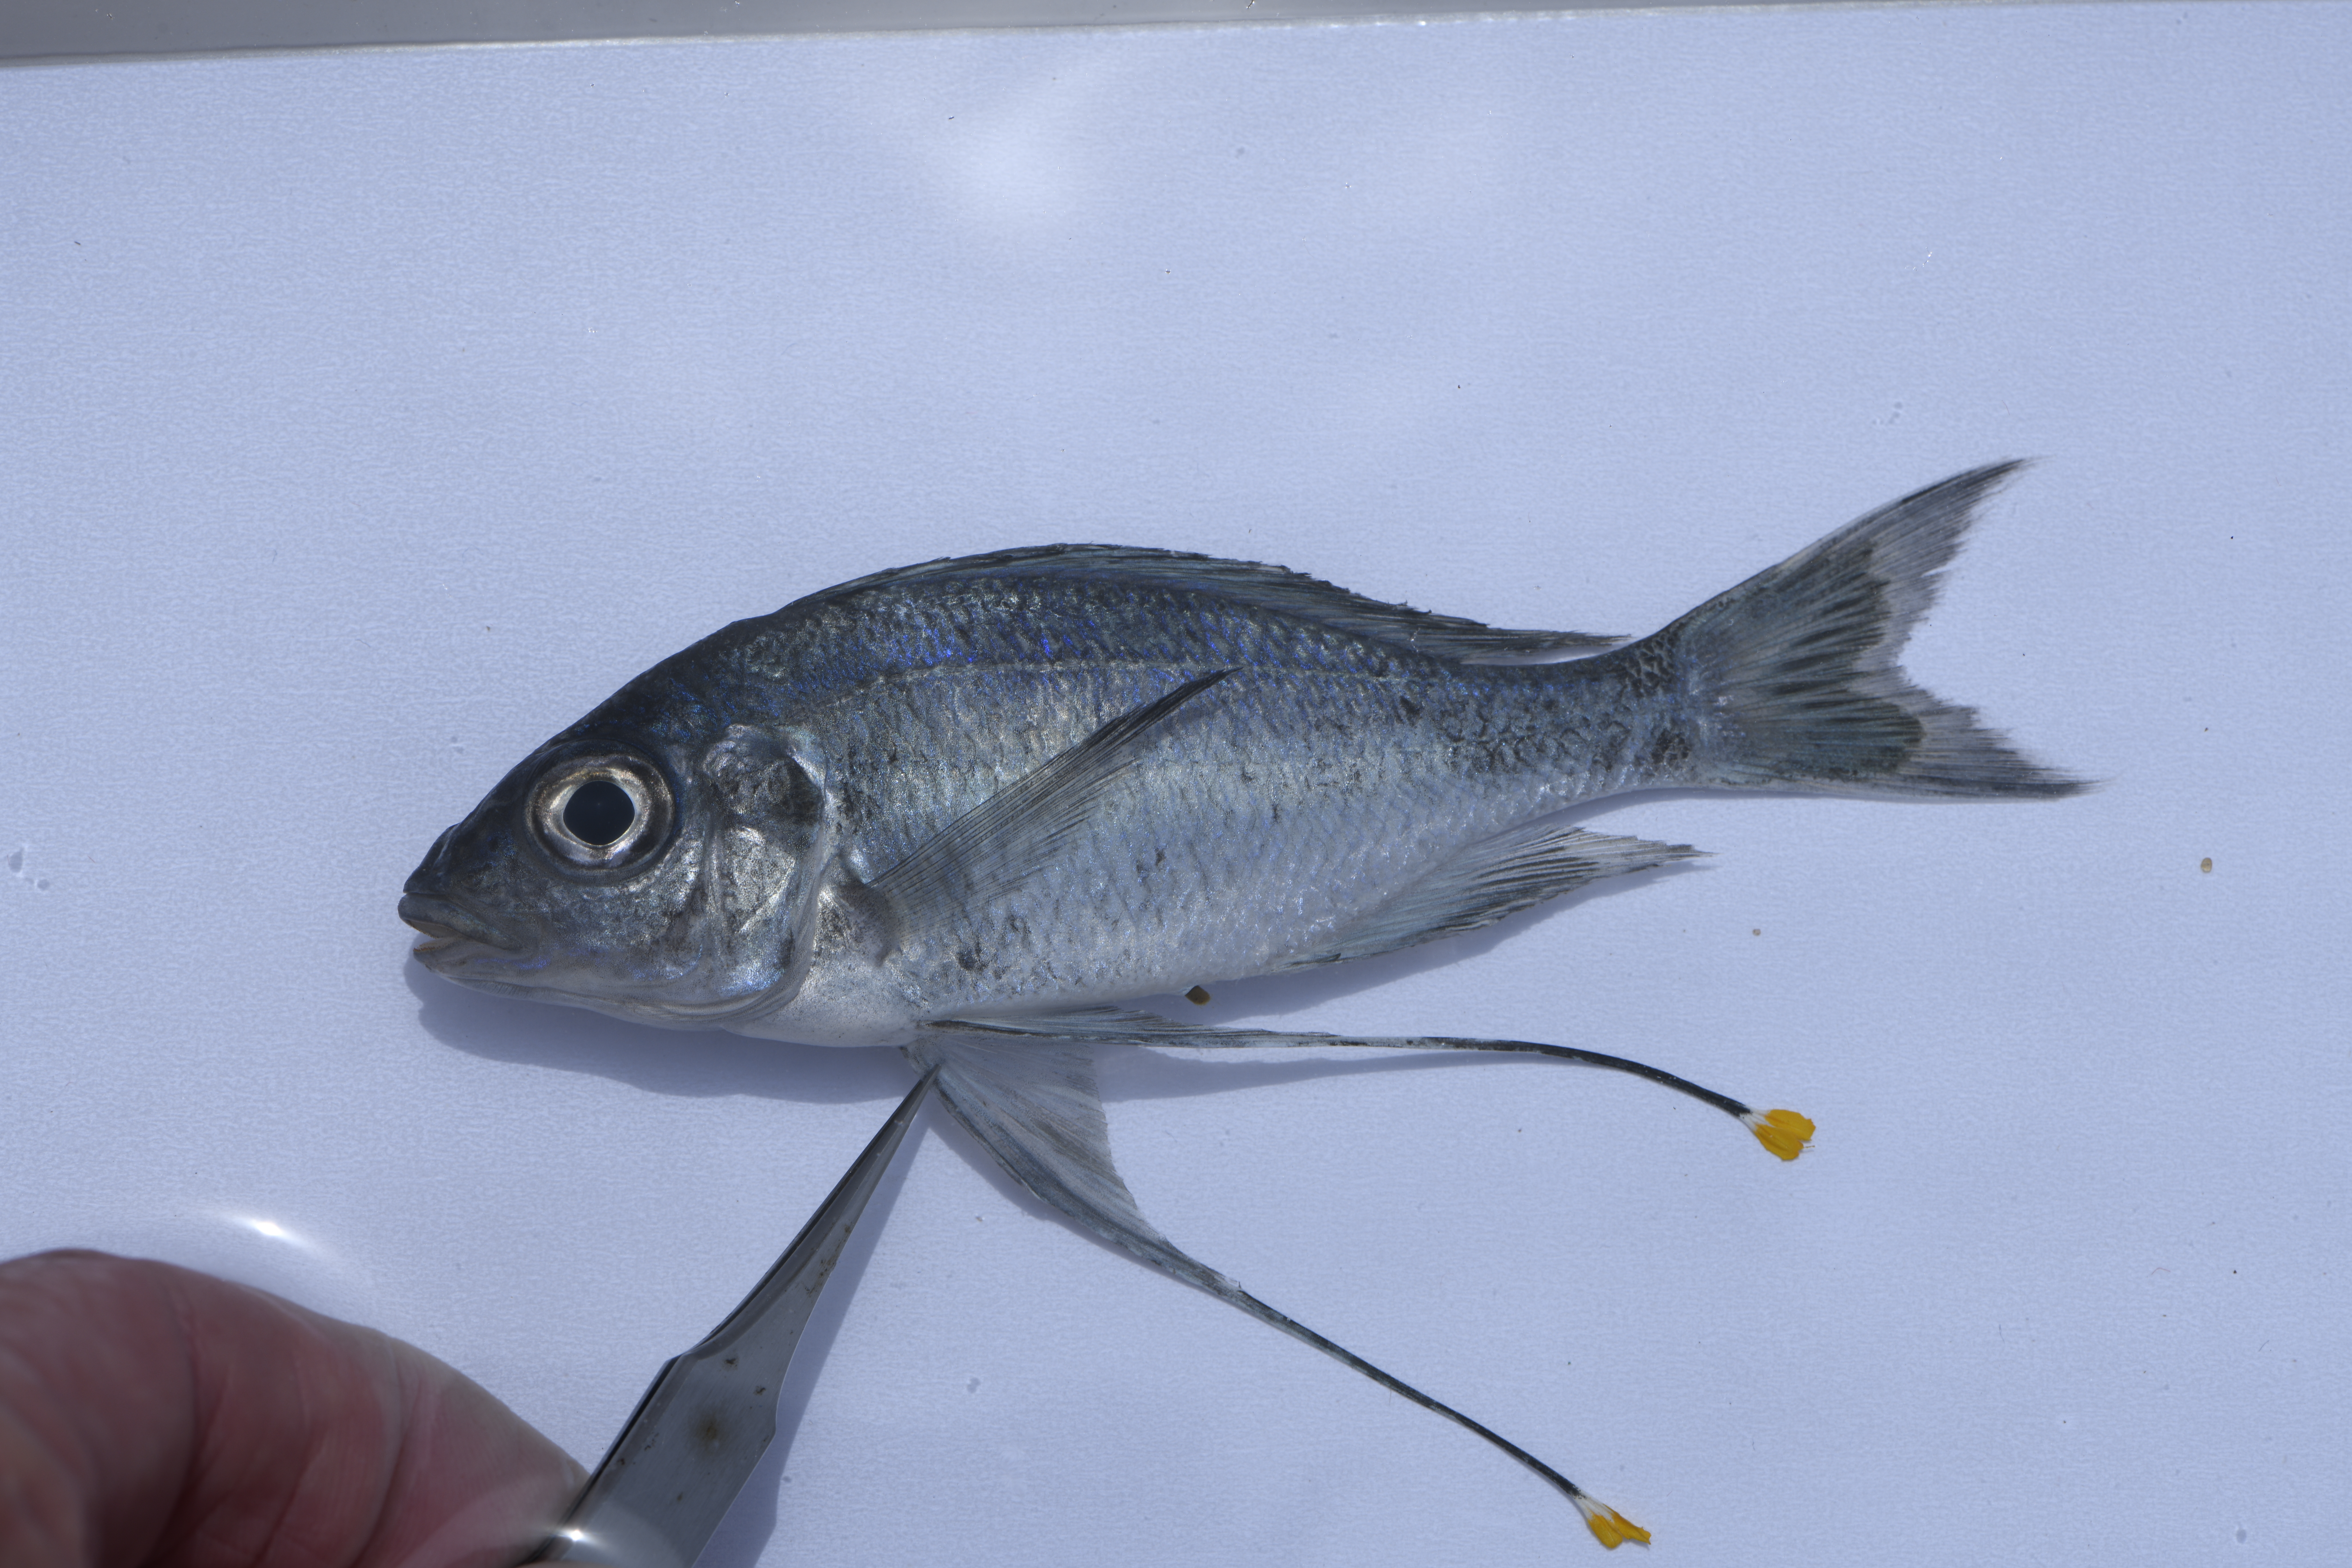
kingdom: Animalia
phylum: Chordata
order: Perciformes
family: Cichlidae
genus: Ophthalmotilapia
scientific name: Ophthalmotilapia ventralis
